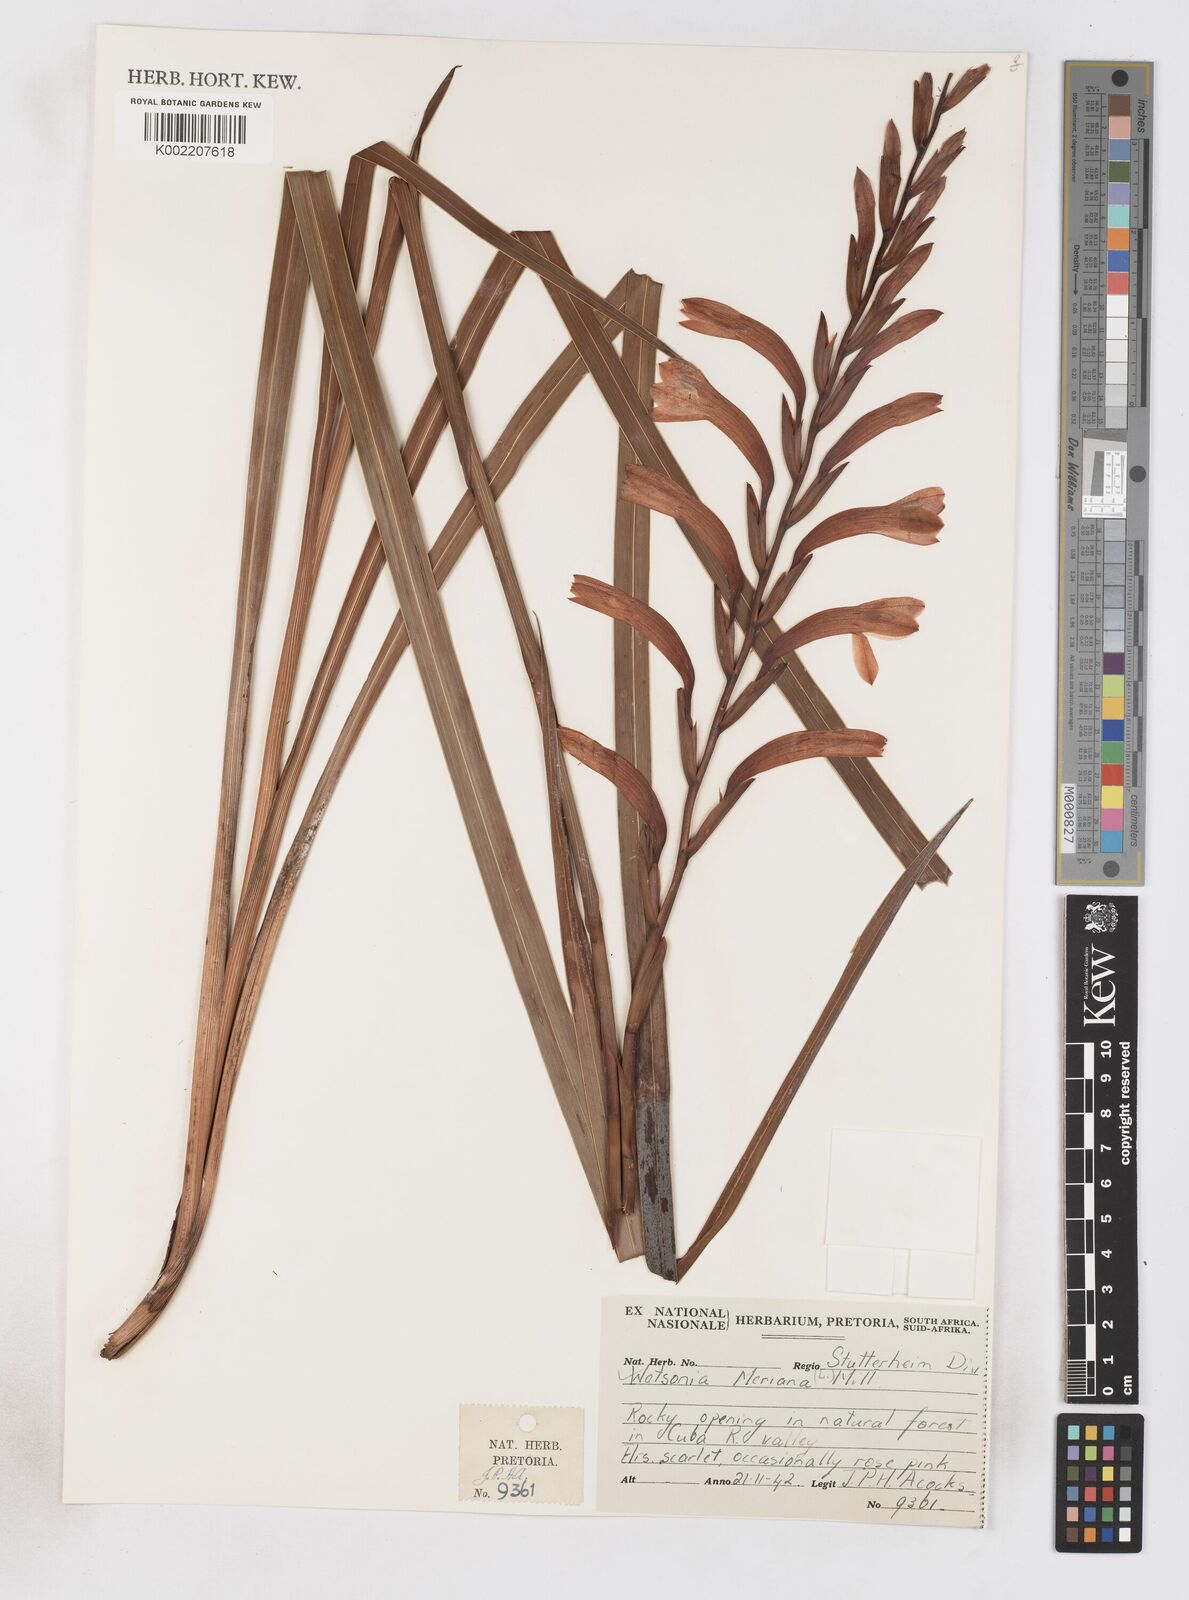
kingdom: Plantae
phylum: Tracheophyta
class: Liliopsida
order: Asparagales
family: Iridaceae
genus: Watsonia
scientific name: Watsonia meriana
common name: Bulbil bugle-lily
